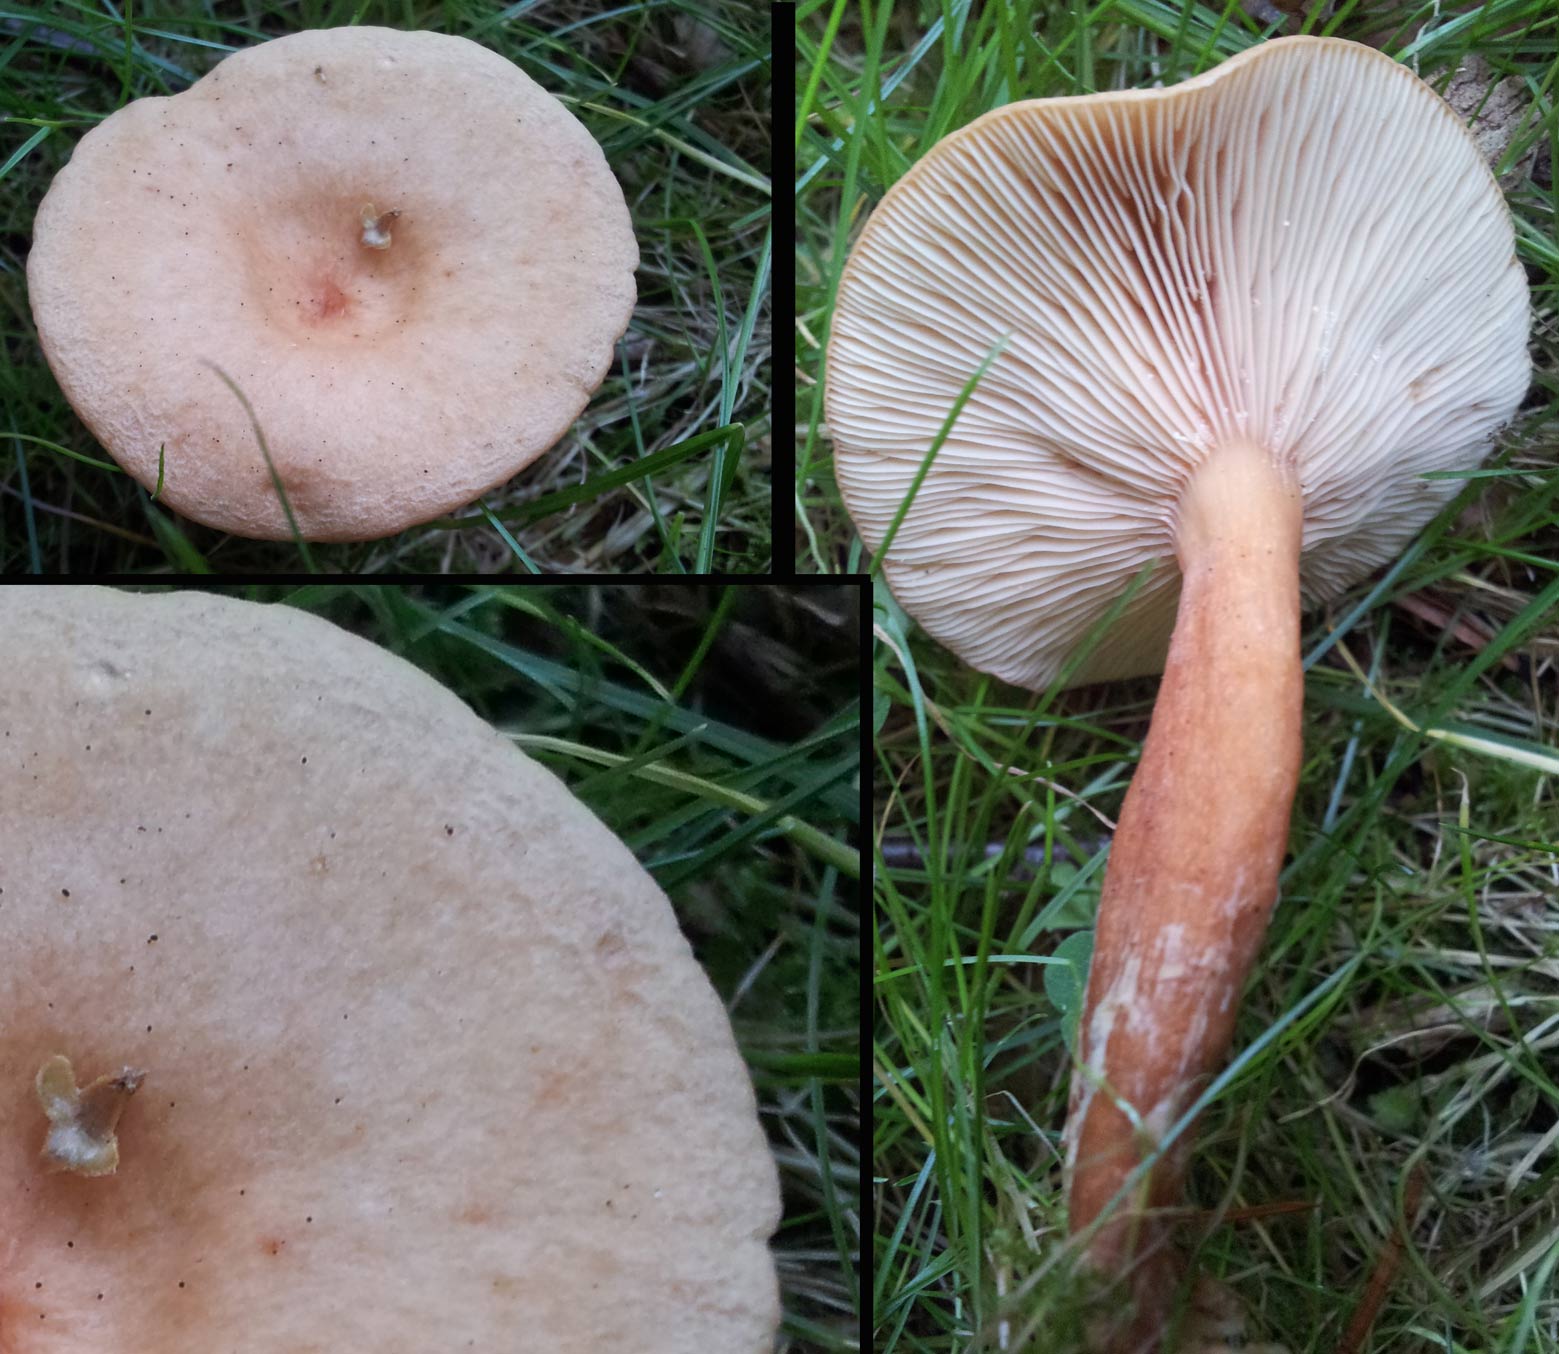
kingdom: Fungi
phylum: Basidiomycota
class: Agaricomycetes
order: Russulales
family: Russulaceae
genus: Lactarius
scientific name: Lactarius tabidus
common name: rynket mælkehat
